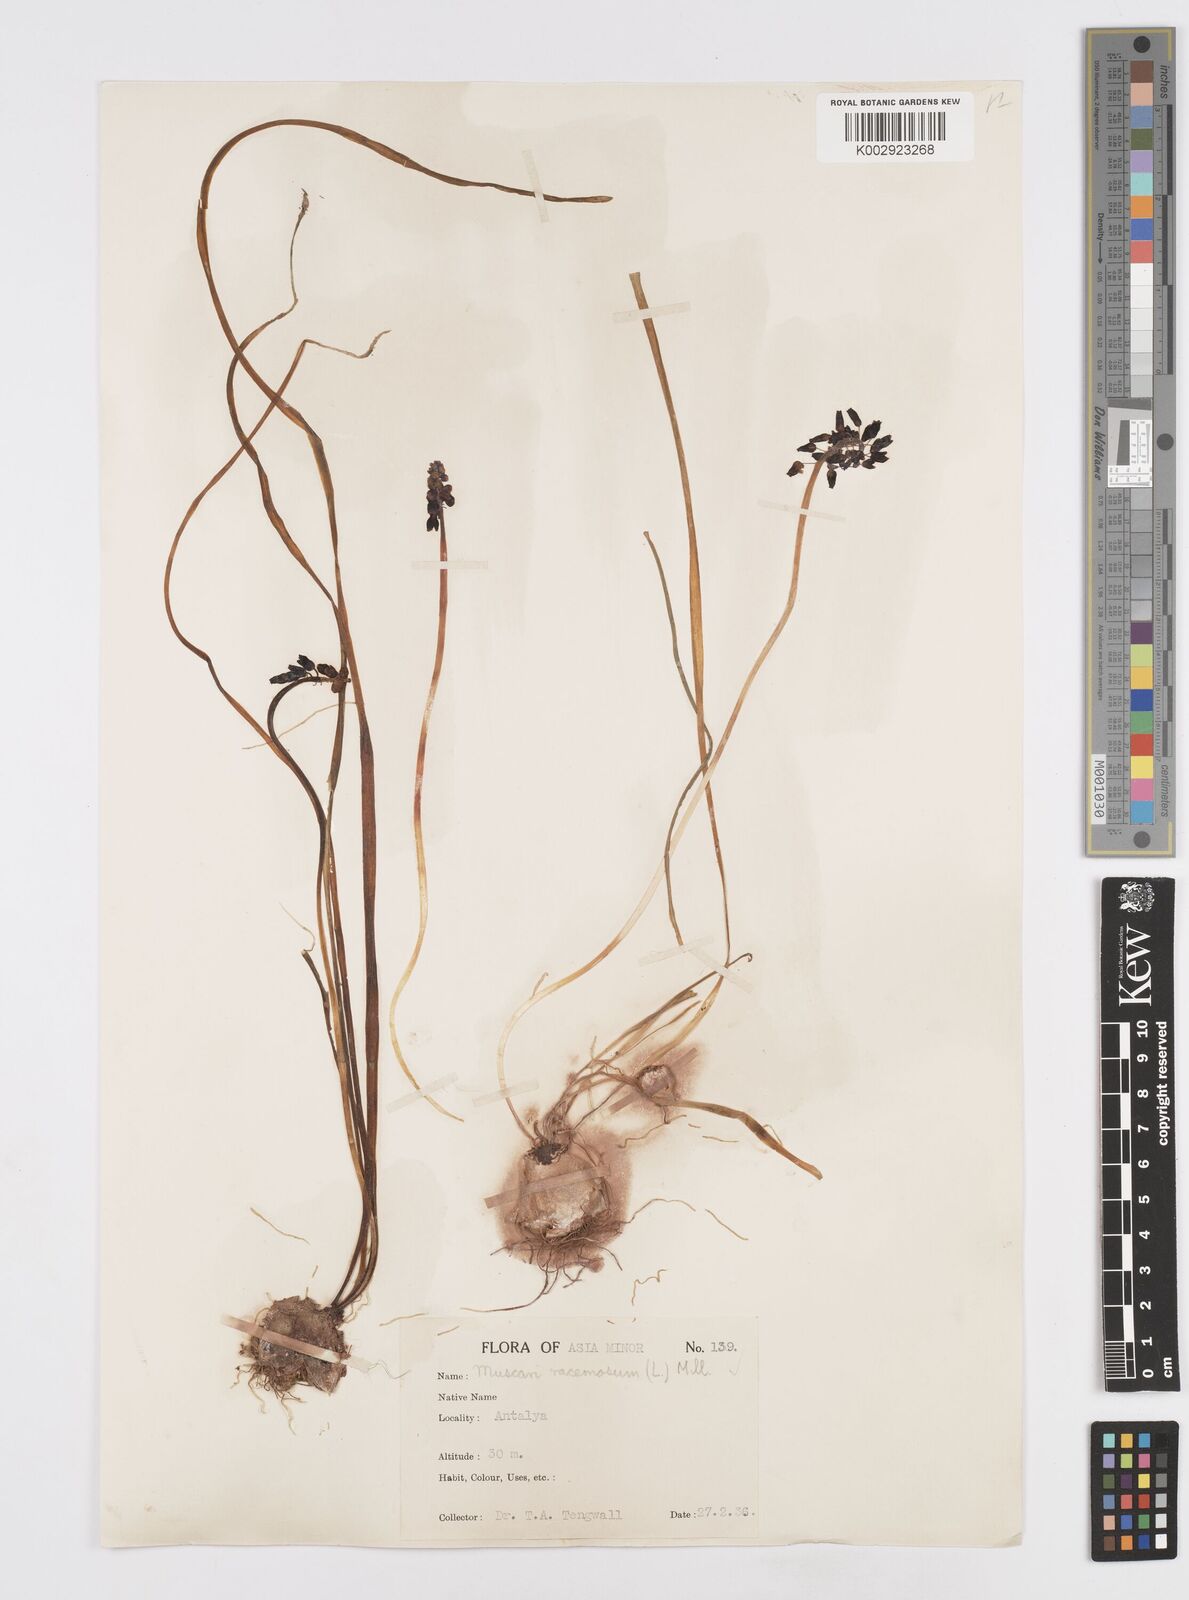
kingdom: Plantae
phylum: Tracheophyta
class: Liliopsida
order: Asparagales
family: Asparagaceae
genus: Muscari
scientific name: Muscari neglectum
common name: Grape-hyacinth
